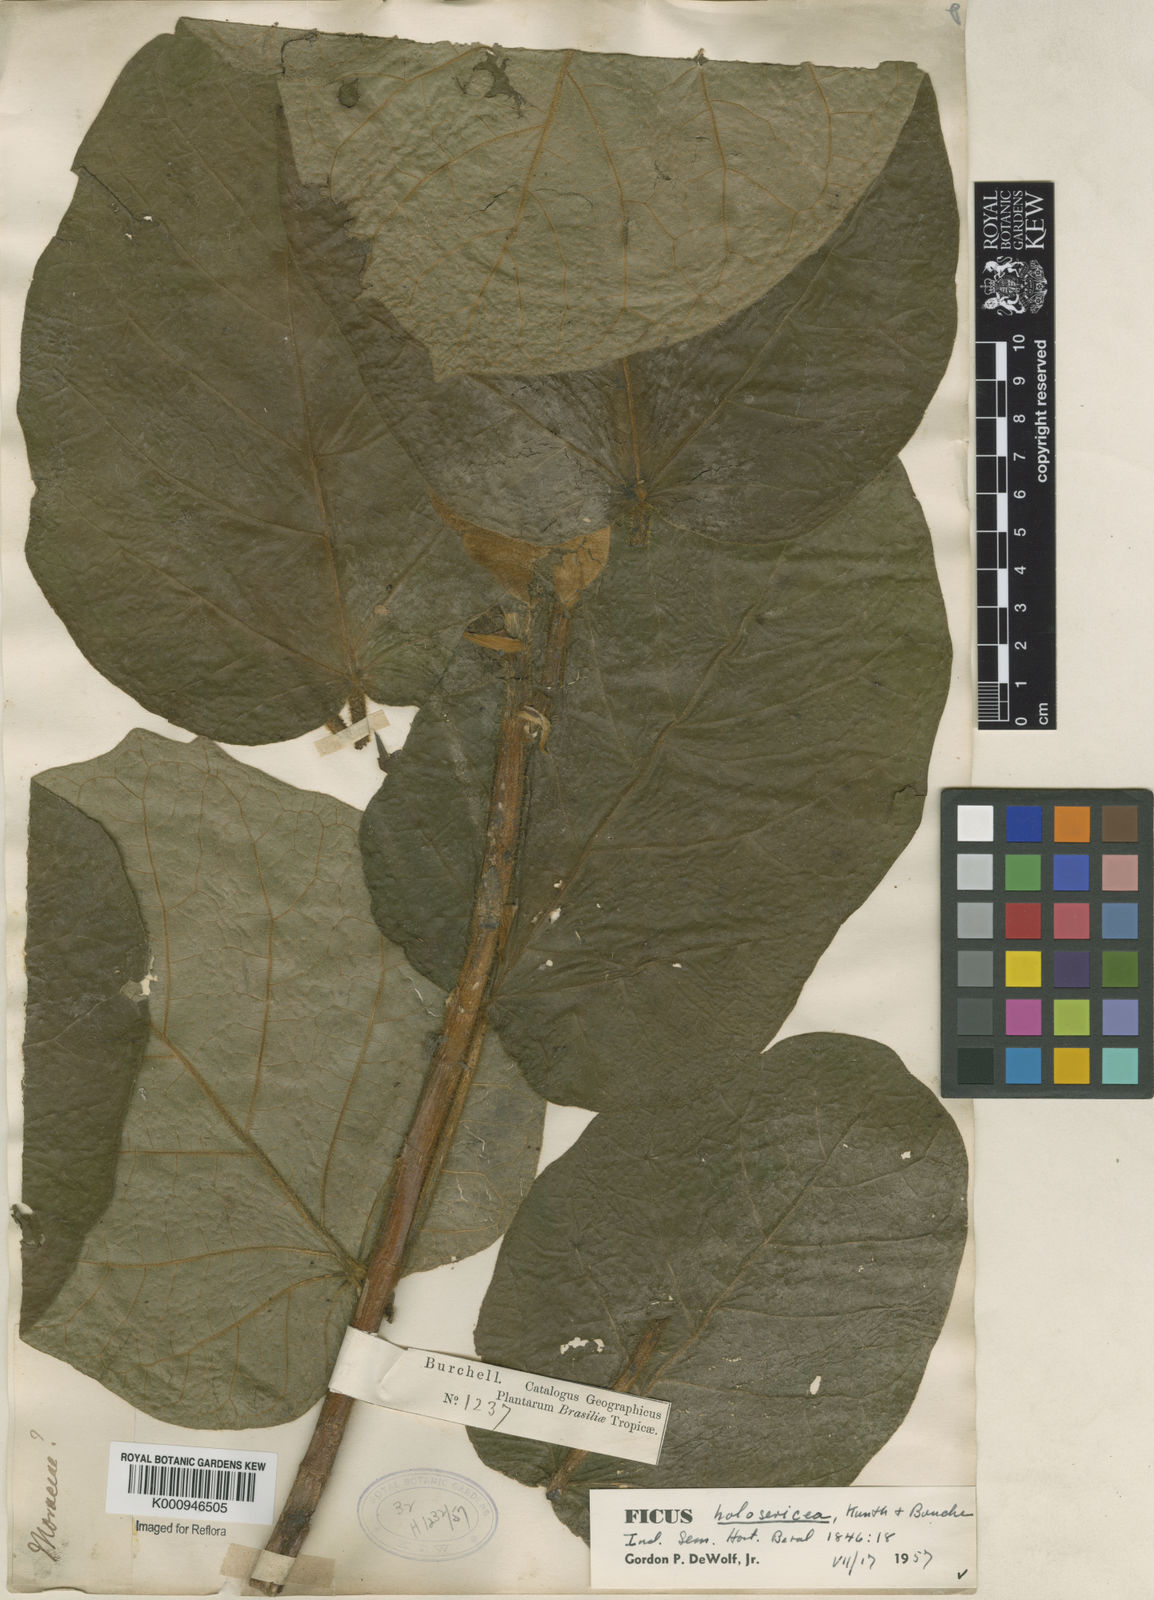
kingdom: Plantae
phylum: Tracheophyta
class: Magnoliopsida
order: Rosales
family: Moraceae
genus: Ficus
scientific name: Ficus holosericea
